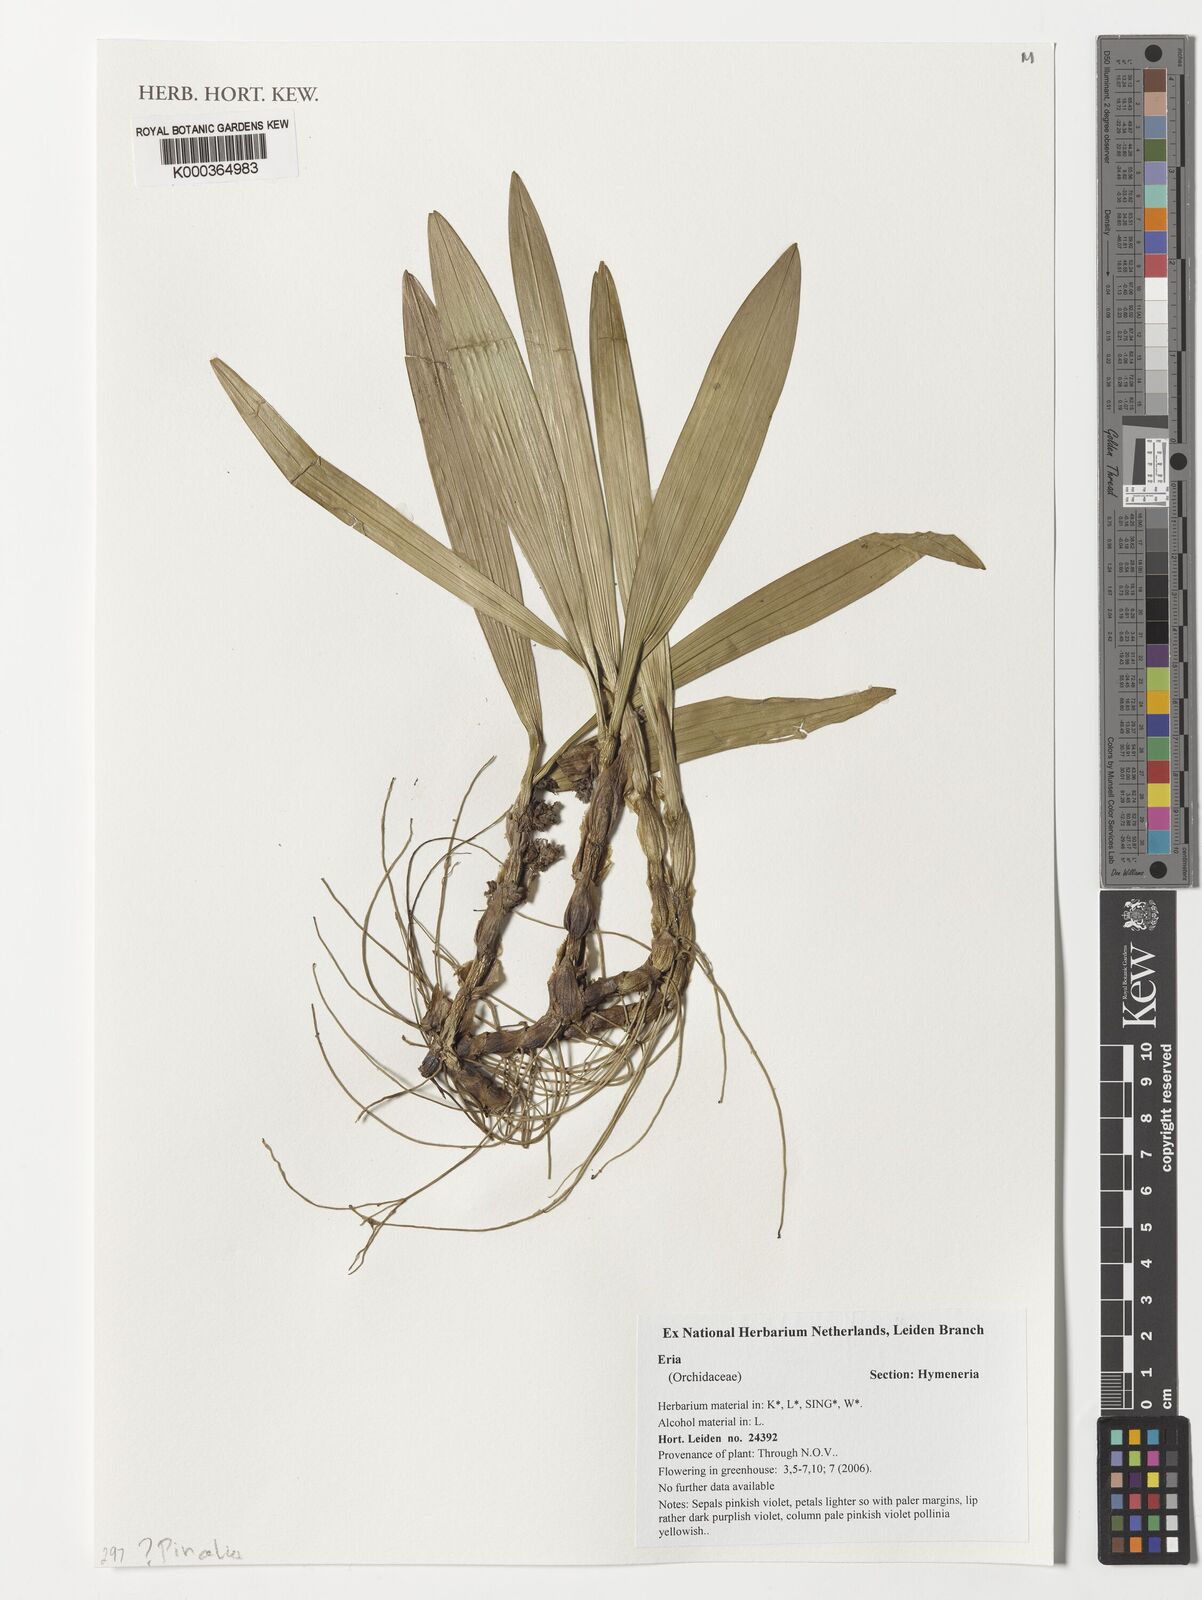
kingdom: Plantae
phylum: Tracheophyta
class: Liliopsida
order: Asparagales
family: Orchidaceae
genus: Eria
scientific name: Eria
